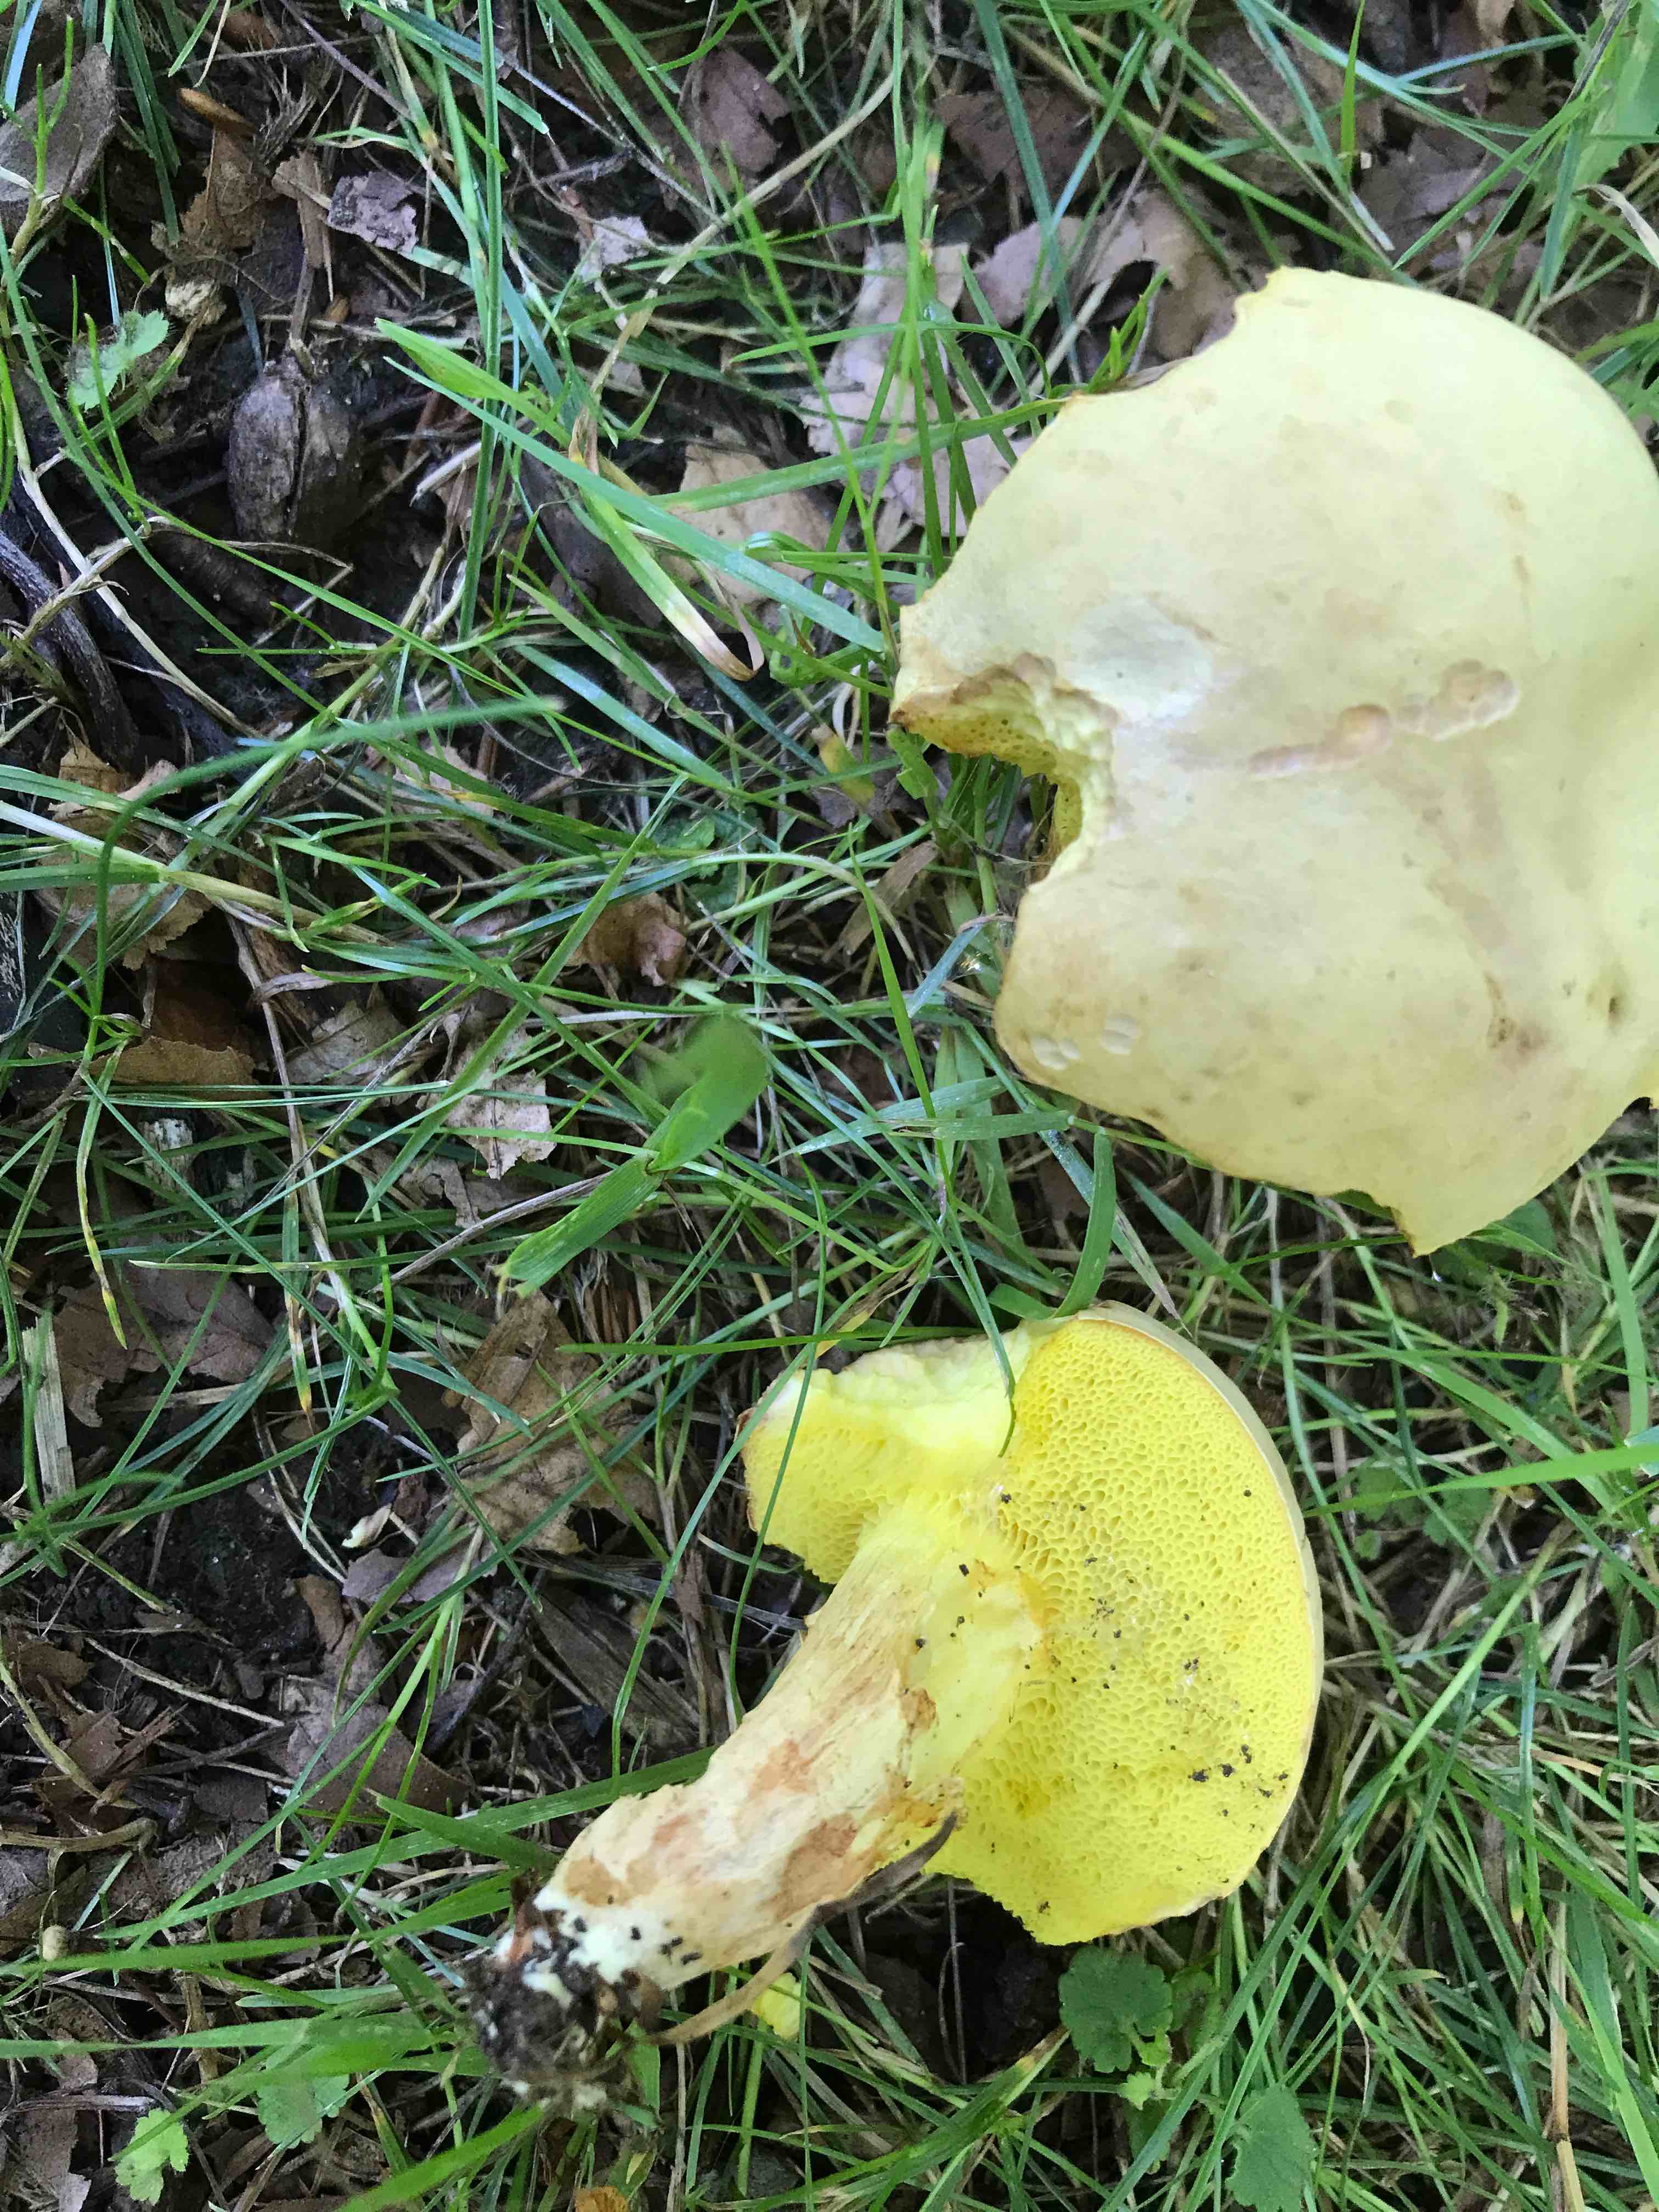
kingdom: Fungi
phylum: Basidiomycota
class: Agaricomycetes
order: Boletales
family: Boletaceae
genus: Xerocomus
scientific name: Xerocomus subtomentosus
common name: filtet rørhat
